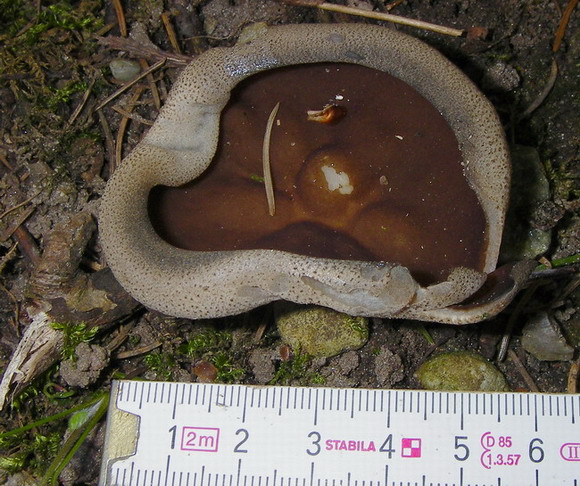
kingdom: Fungi
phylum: Ascomycota
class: Pezizomycetes
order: Pezizales
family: Morchellaceae
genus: Disciotis
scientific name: Disciotis venosa
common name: klor-bægermorkel
